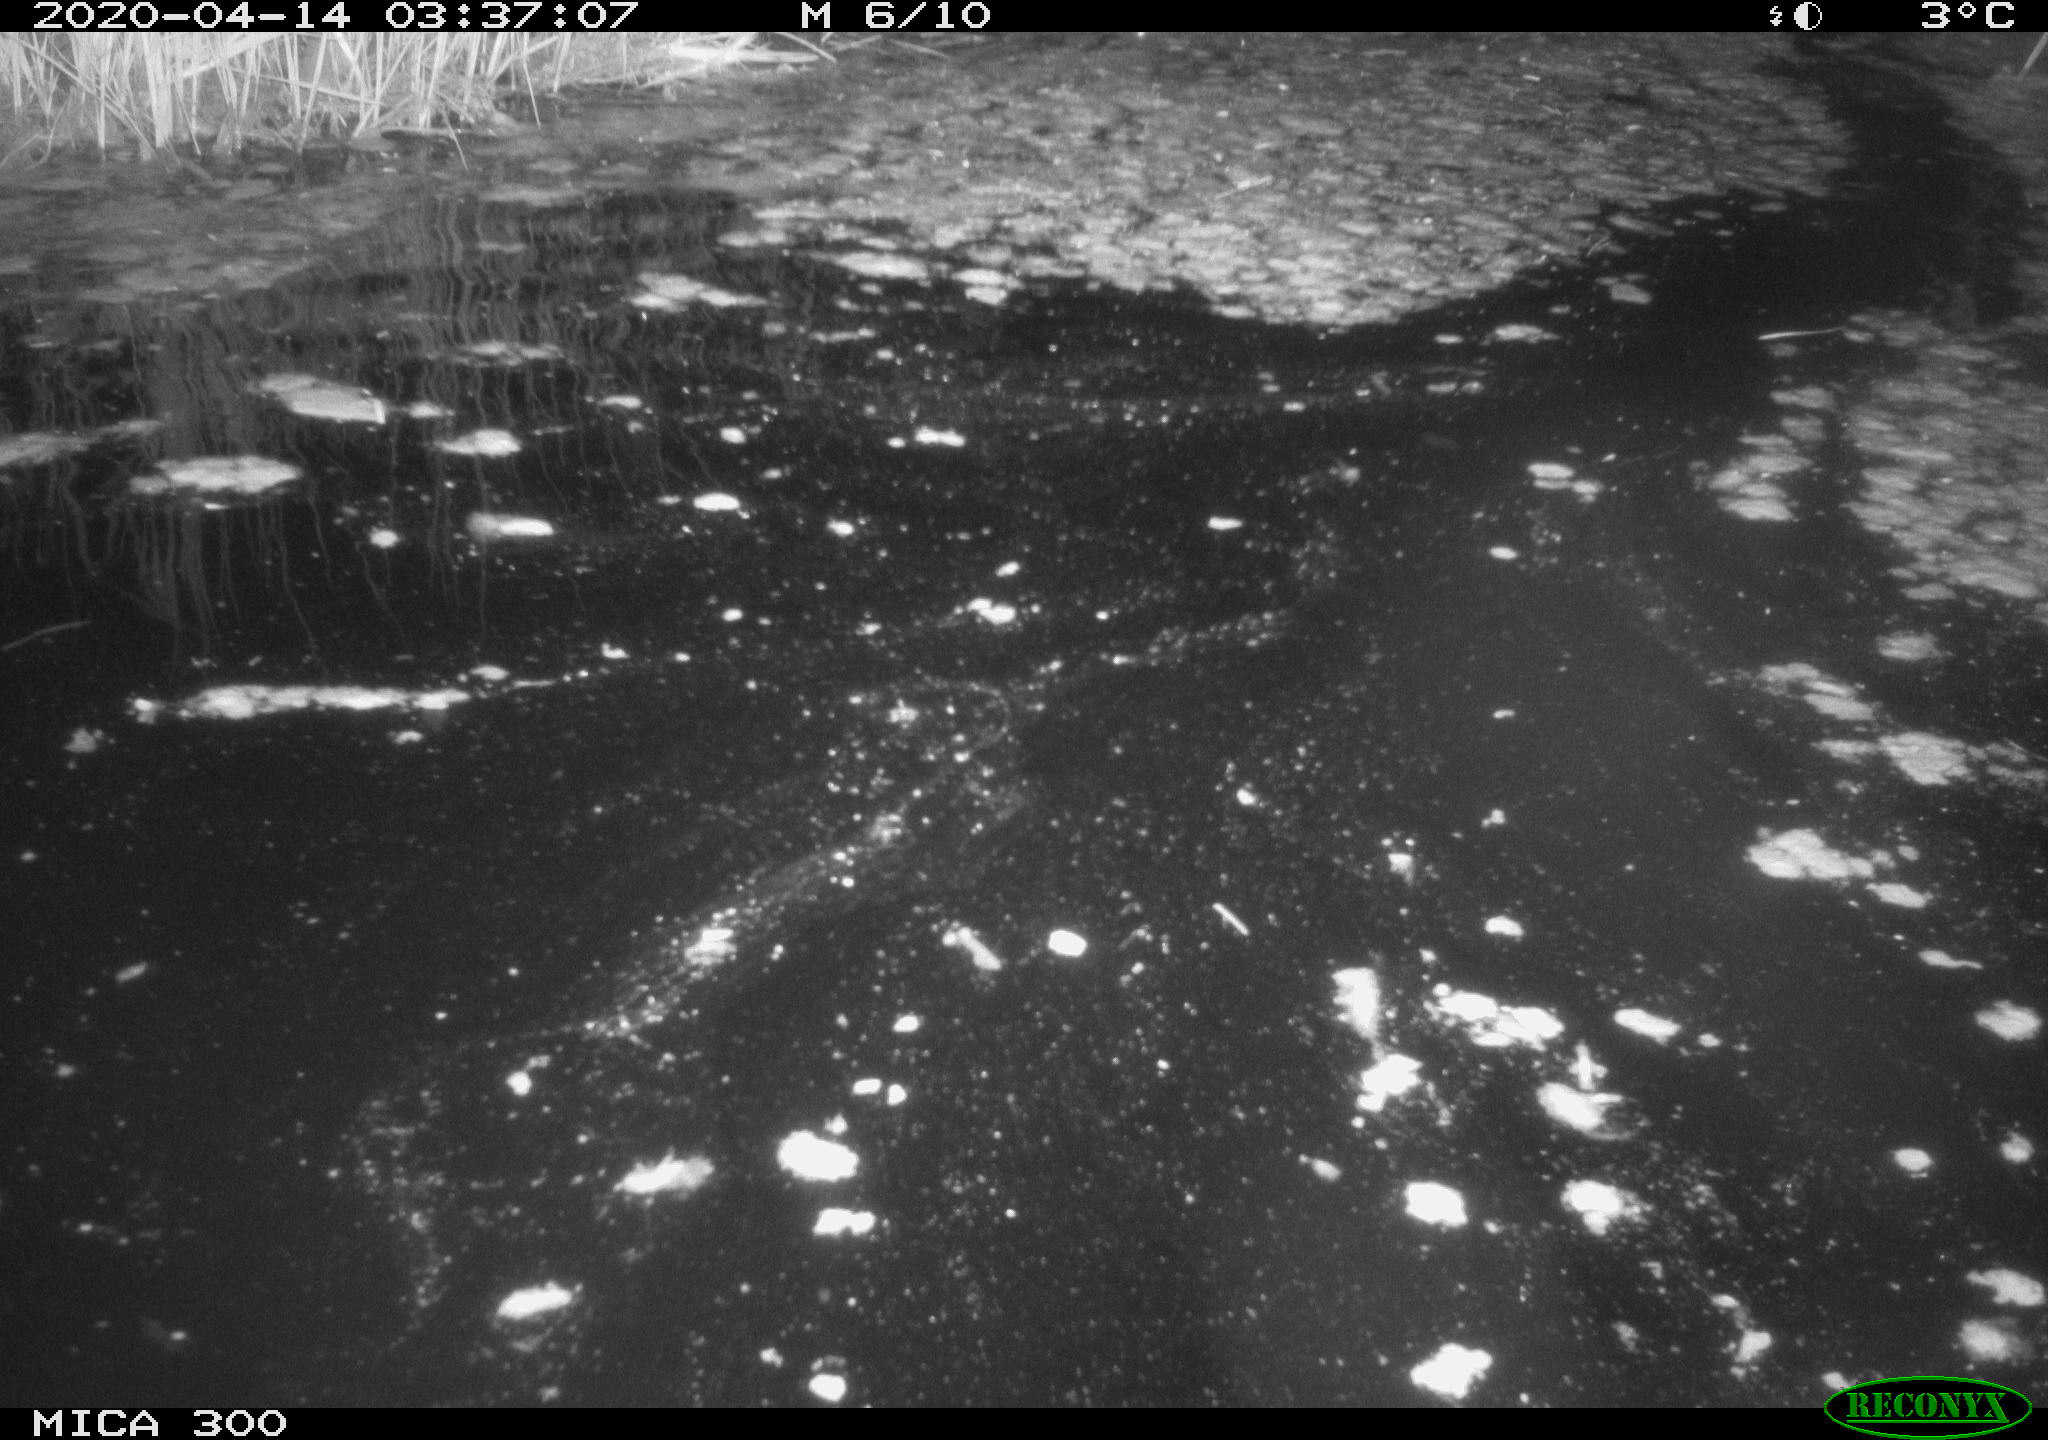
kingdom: Animalia
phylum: Chordata
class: Mammalia
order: Rodentia
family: Castoridae
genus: Castor
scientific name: Castor fiber
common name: Eurasian beaver
